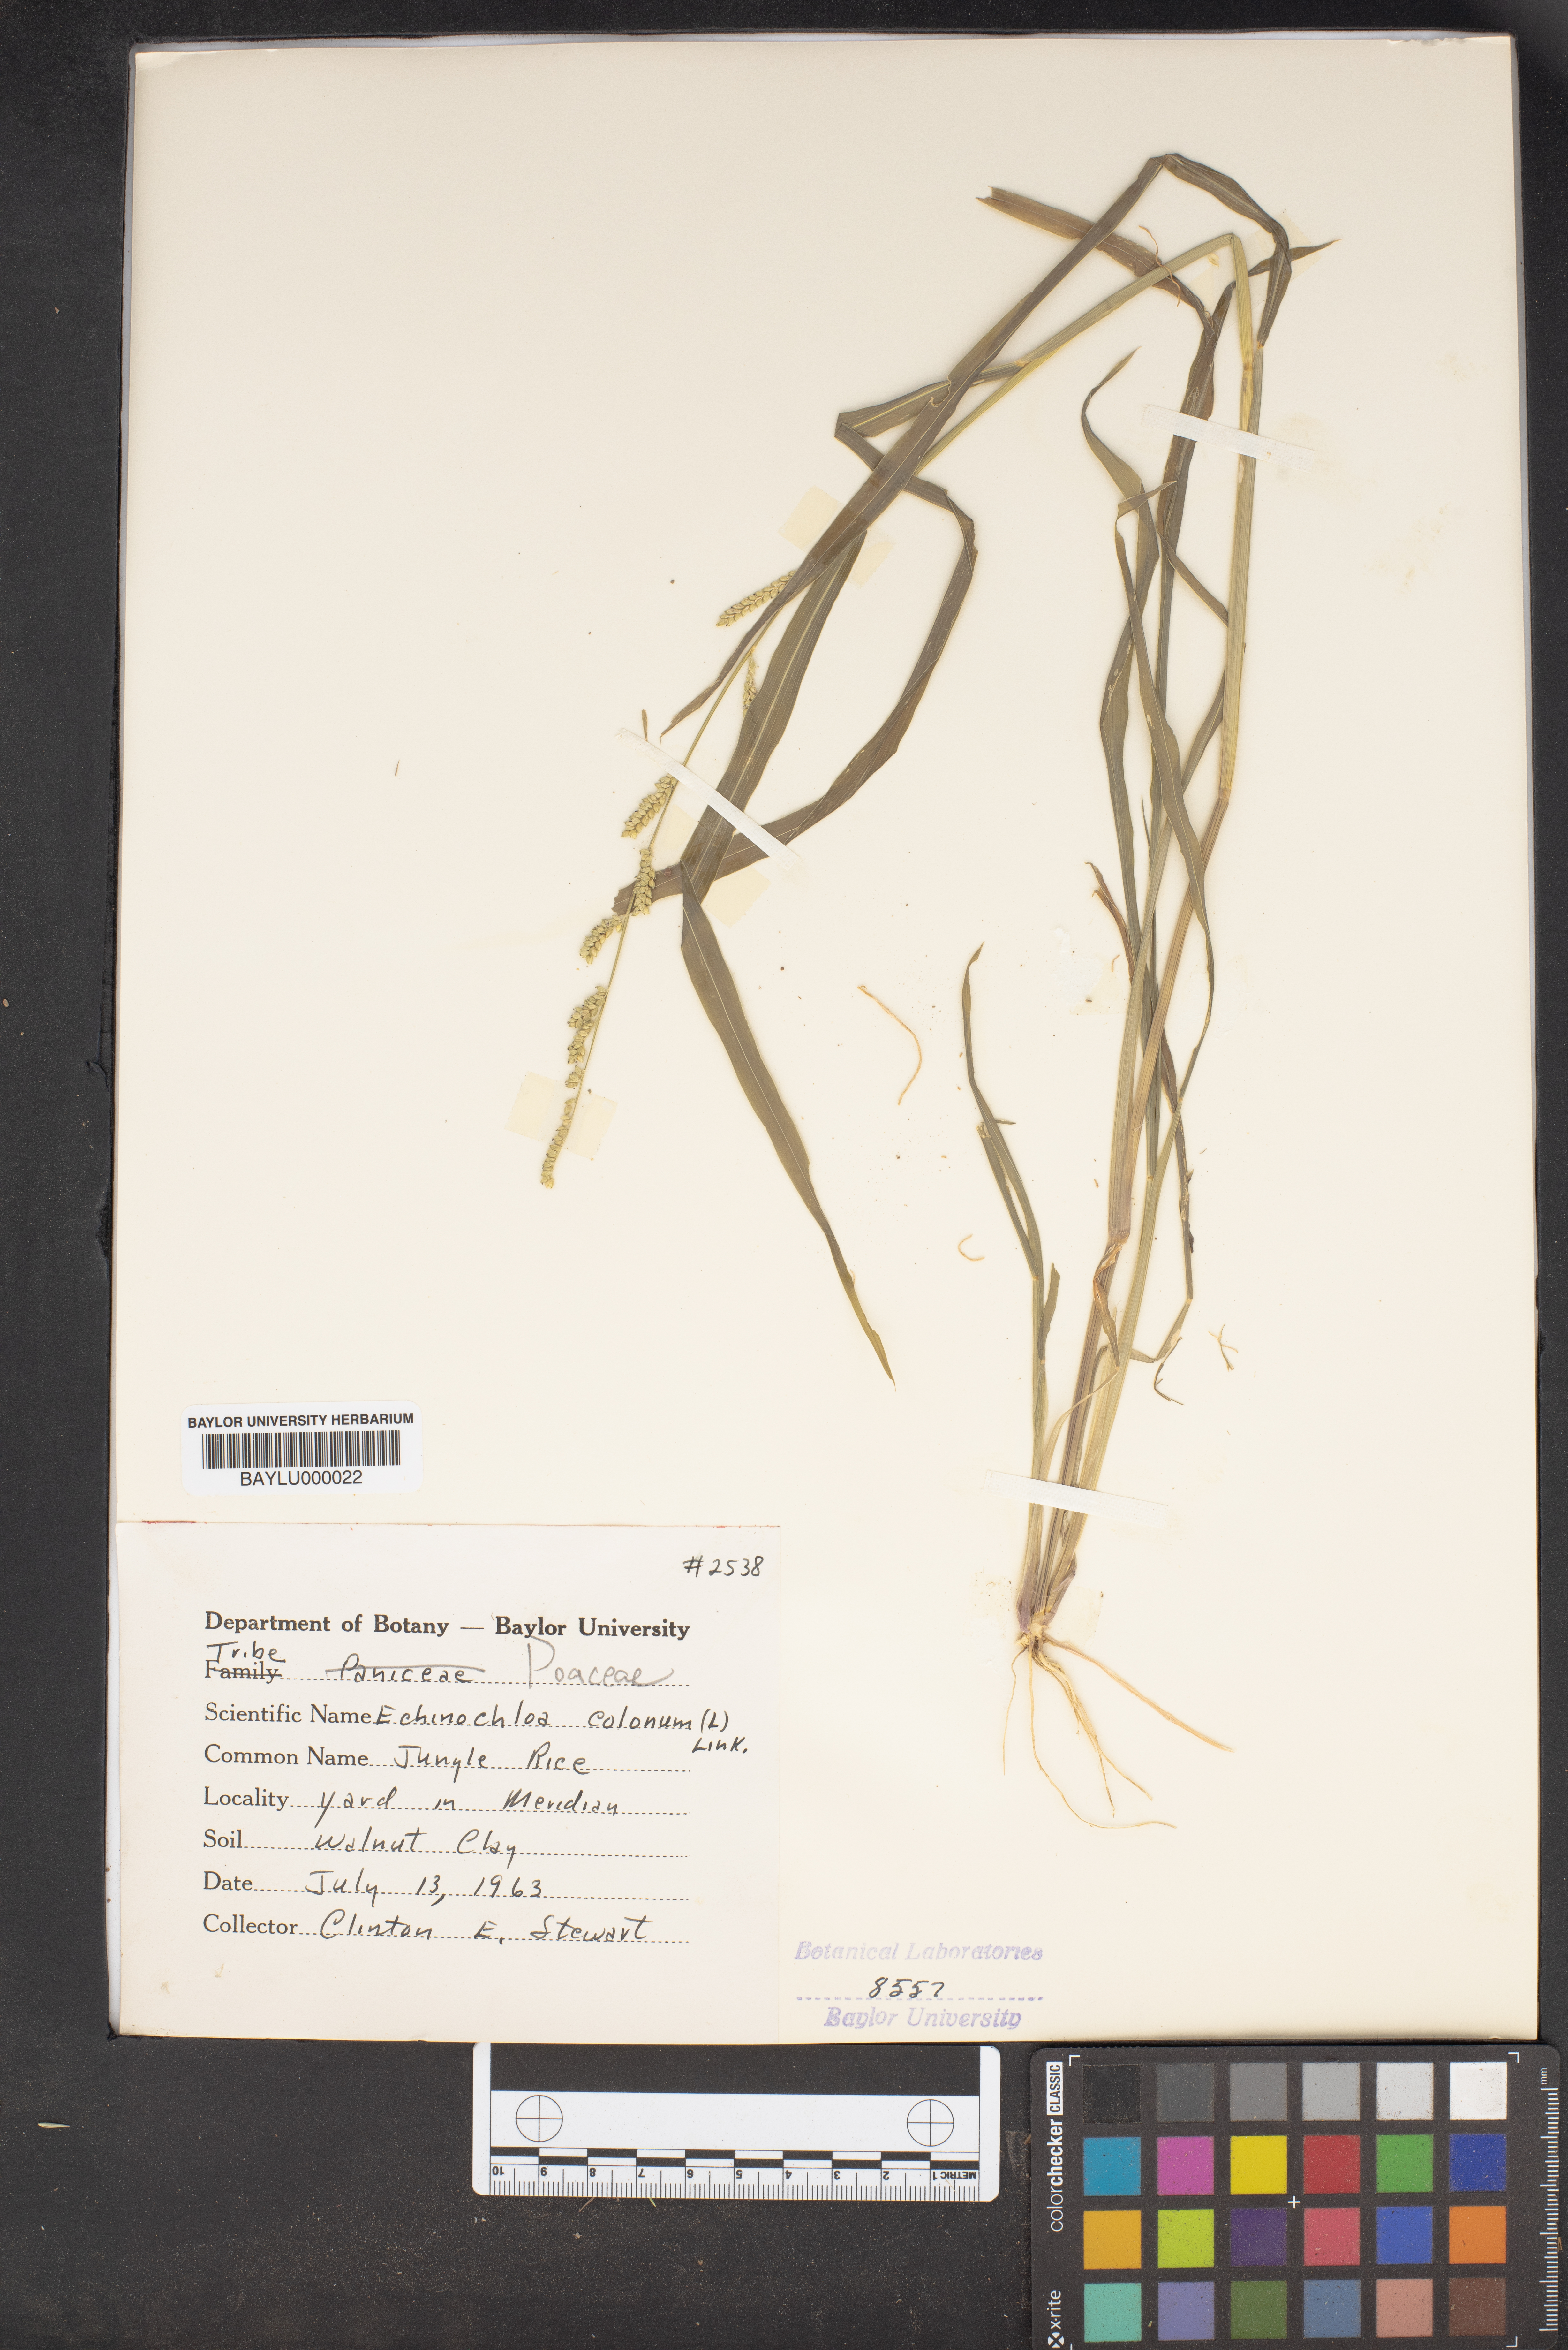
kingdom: Plantae
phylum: Tracheophyta
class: Liliopsida
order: Poales
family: Poaceae
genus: Echinochloa
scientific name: Echinochloa colonum
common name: Jungle rice
